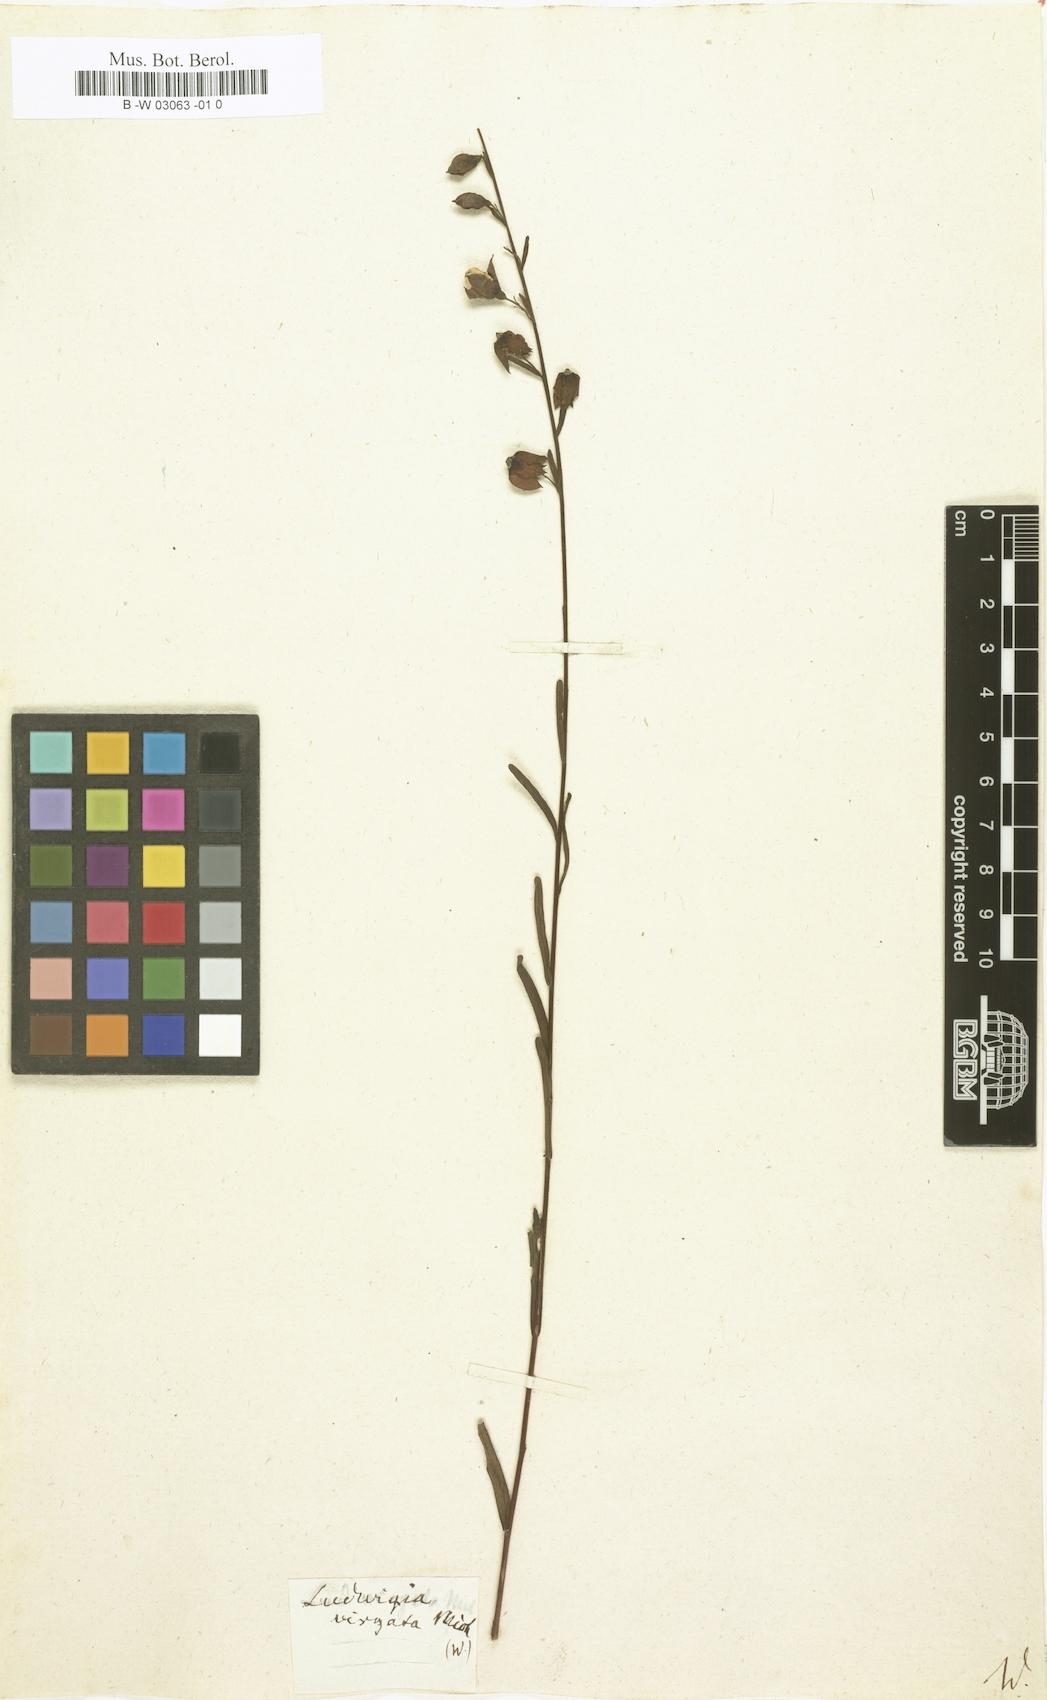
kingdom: Plantae
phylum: Tracheophyta
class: Magnoliopsida
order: Myrtales
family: Onagraceae
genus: Ludwigia
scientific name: Ludwigia virgata
